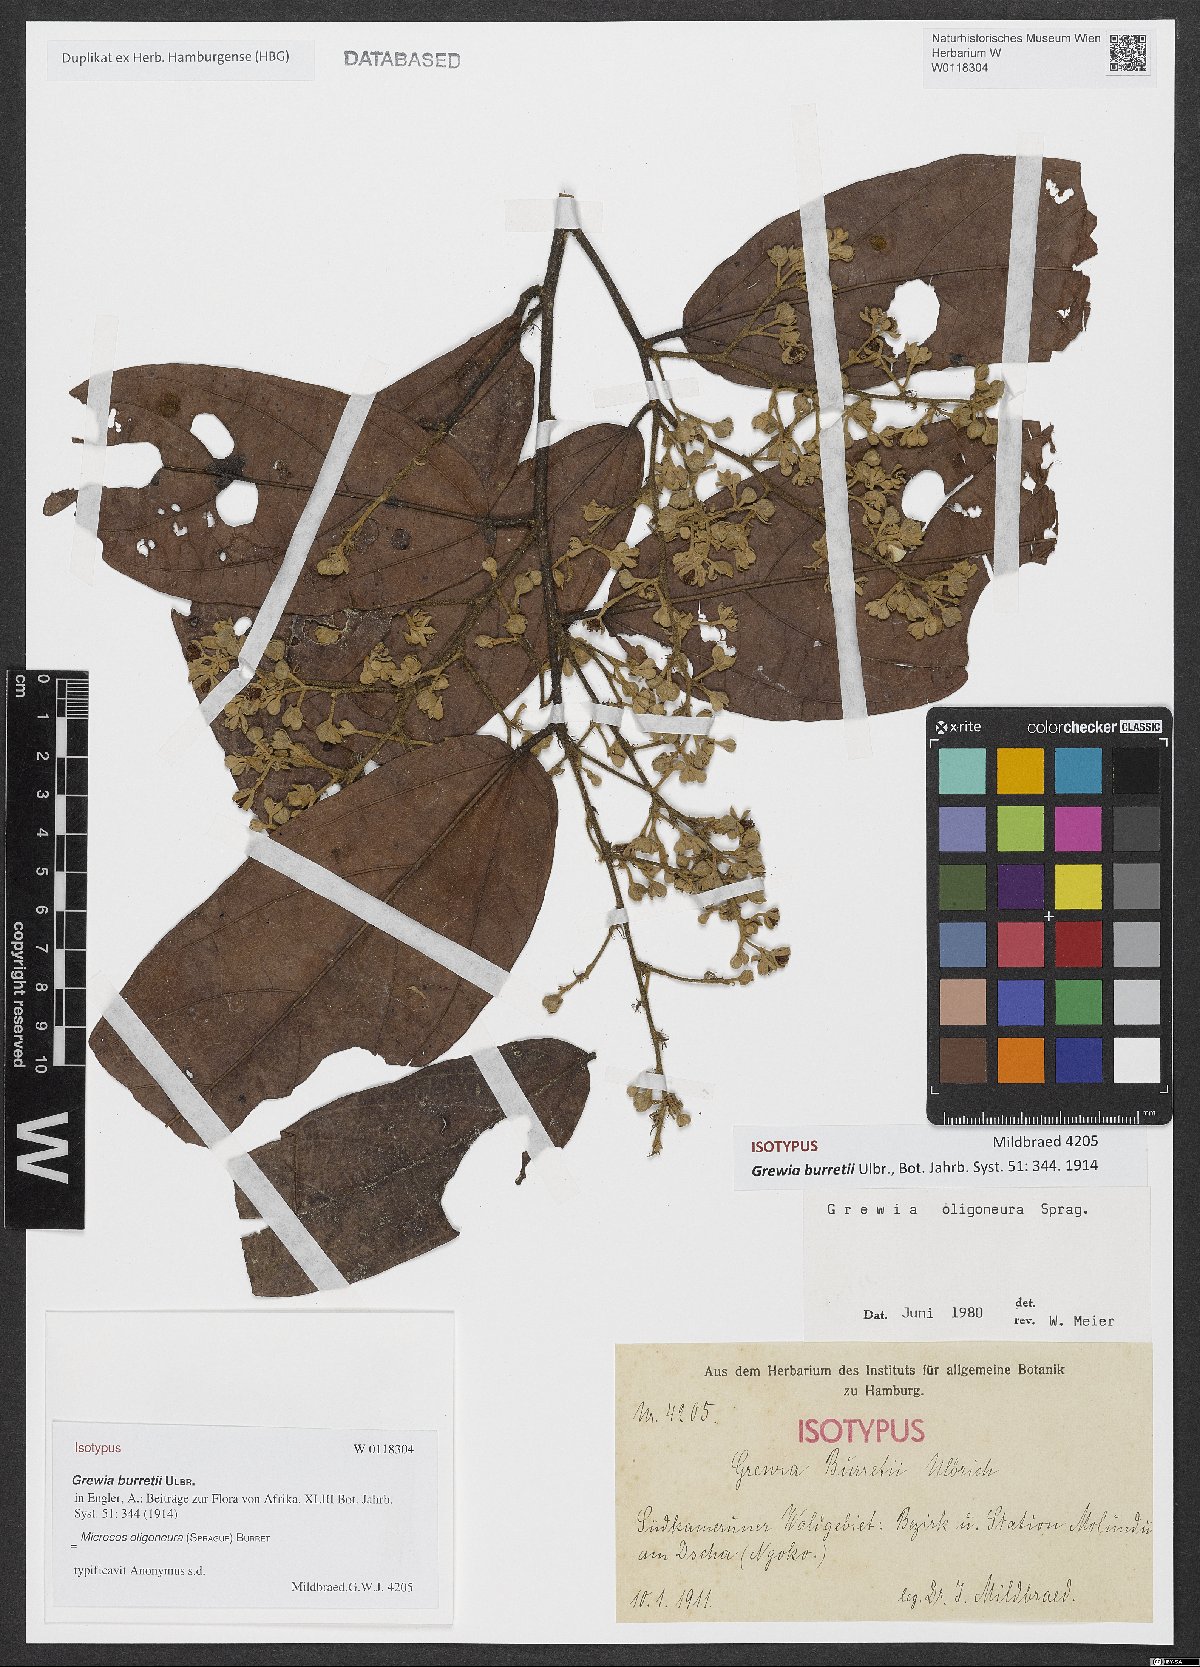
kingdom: Plantae
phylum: Tracheophyta
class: Magnoliopsida
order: Malvales
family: Malvaceae
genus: Microcos
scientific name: Microcos oligoneura
